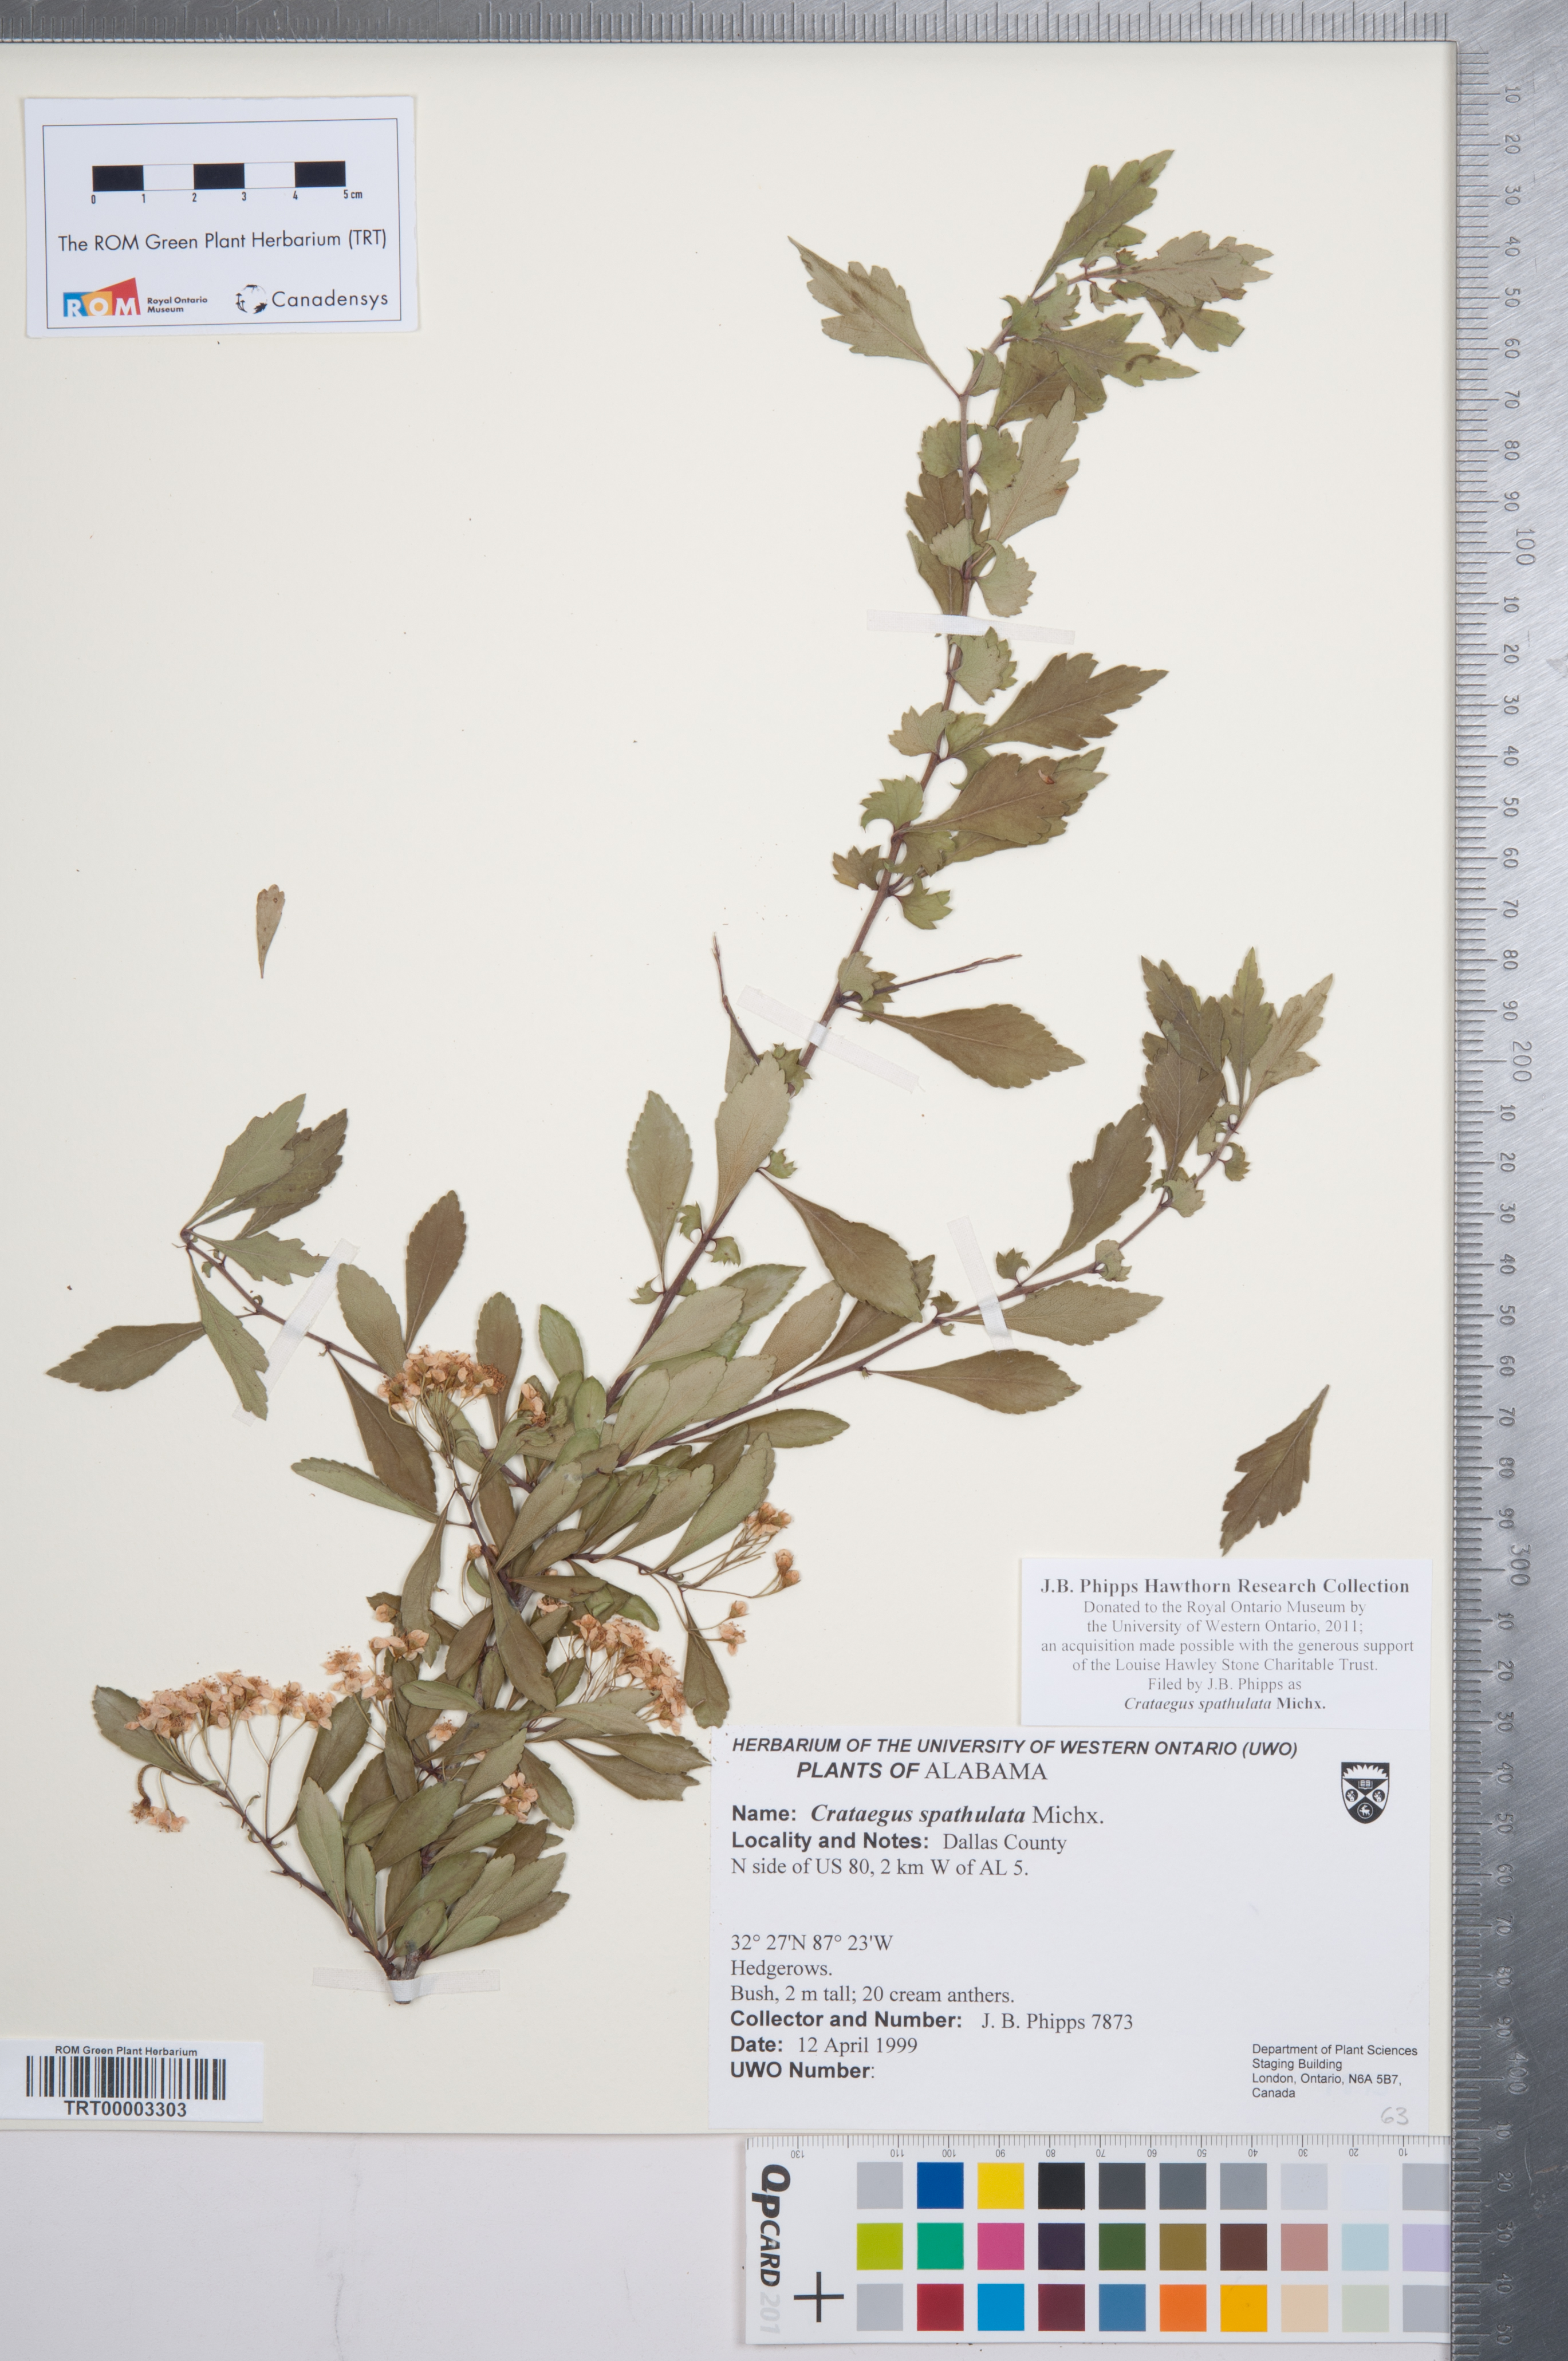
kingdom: Plantae
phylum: Tracheophyta
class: Magnoliopsida
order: Rosales
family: Rosaceae
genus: Crataegus
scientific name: Crataegus spathulata
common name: Littlehip hawthorn
